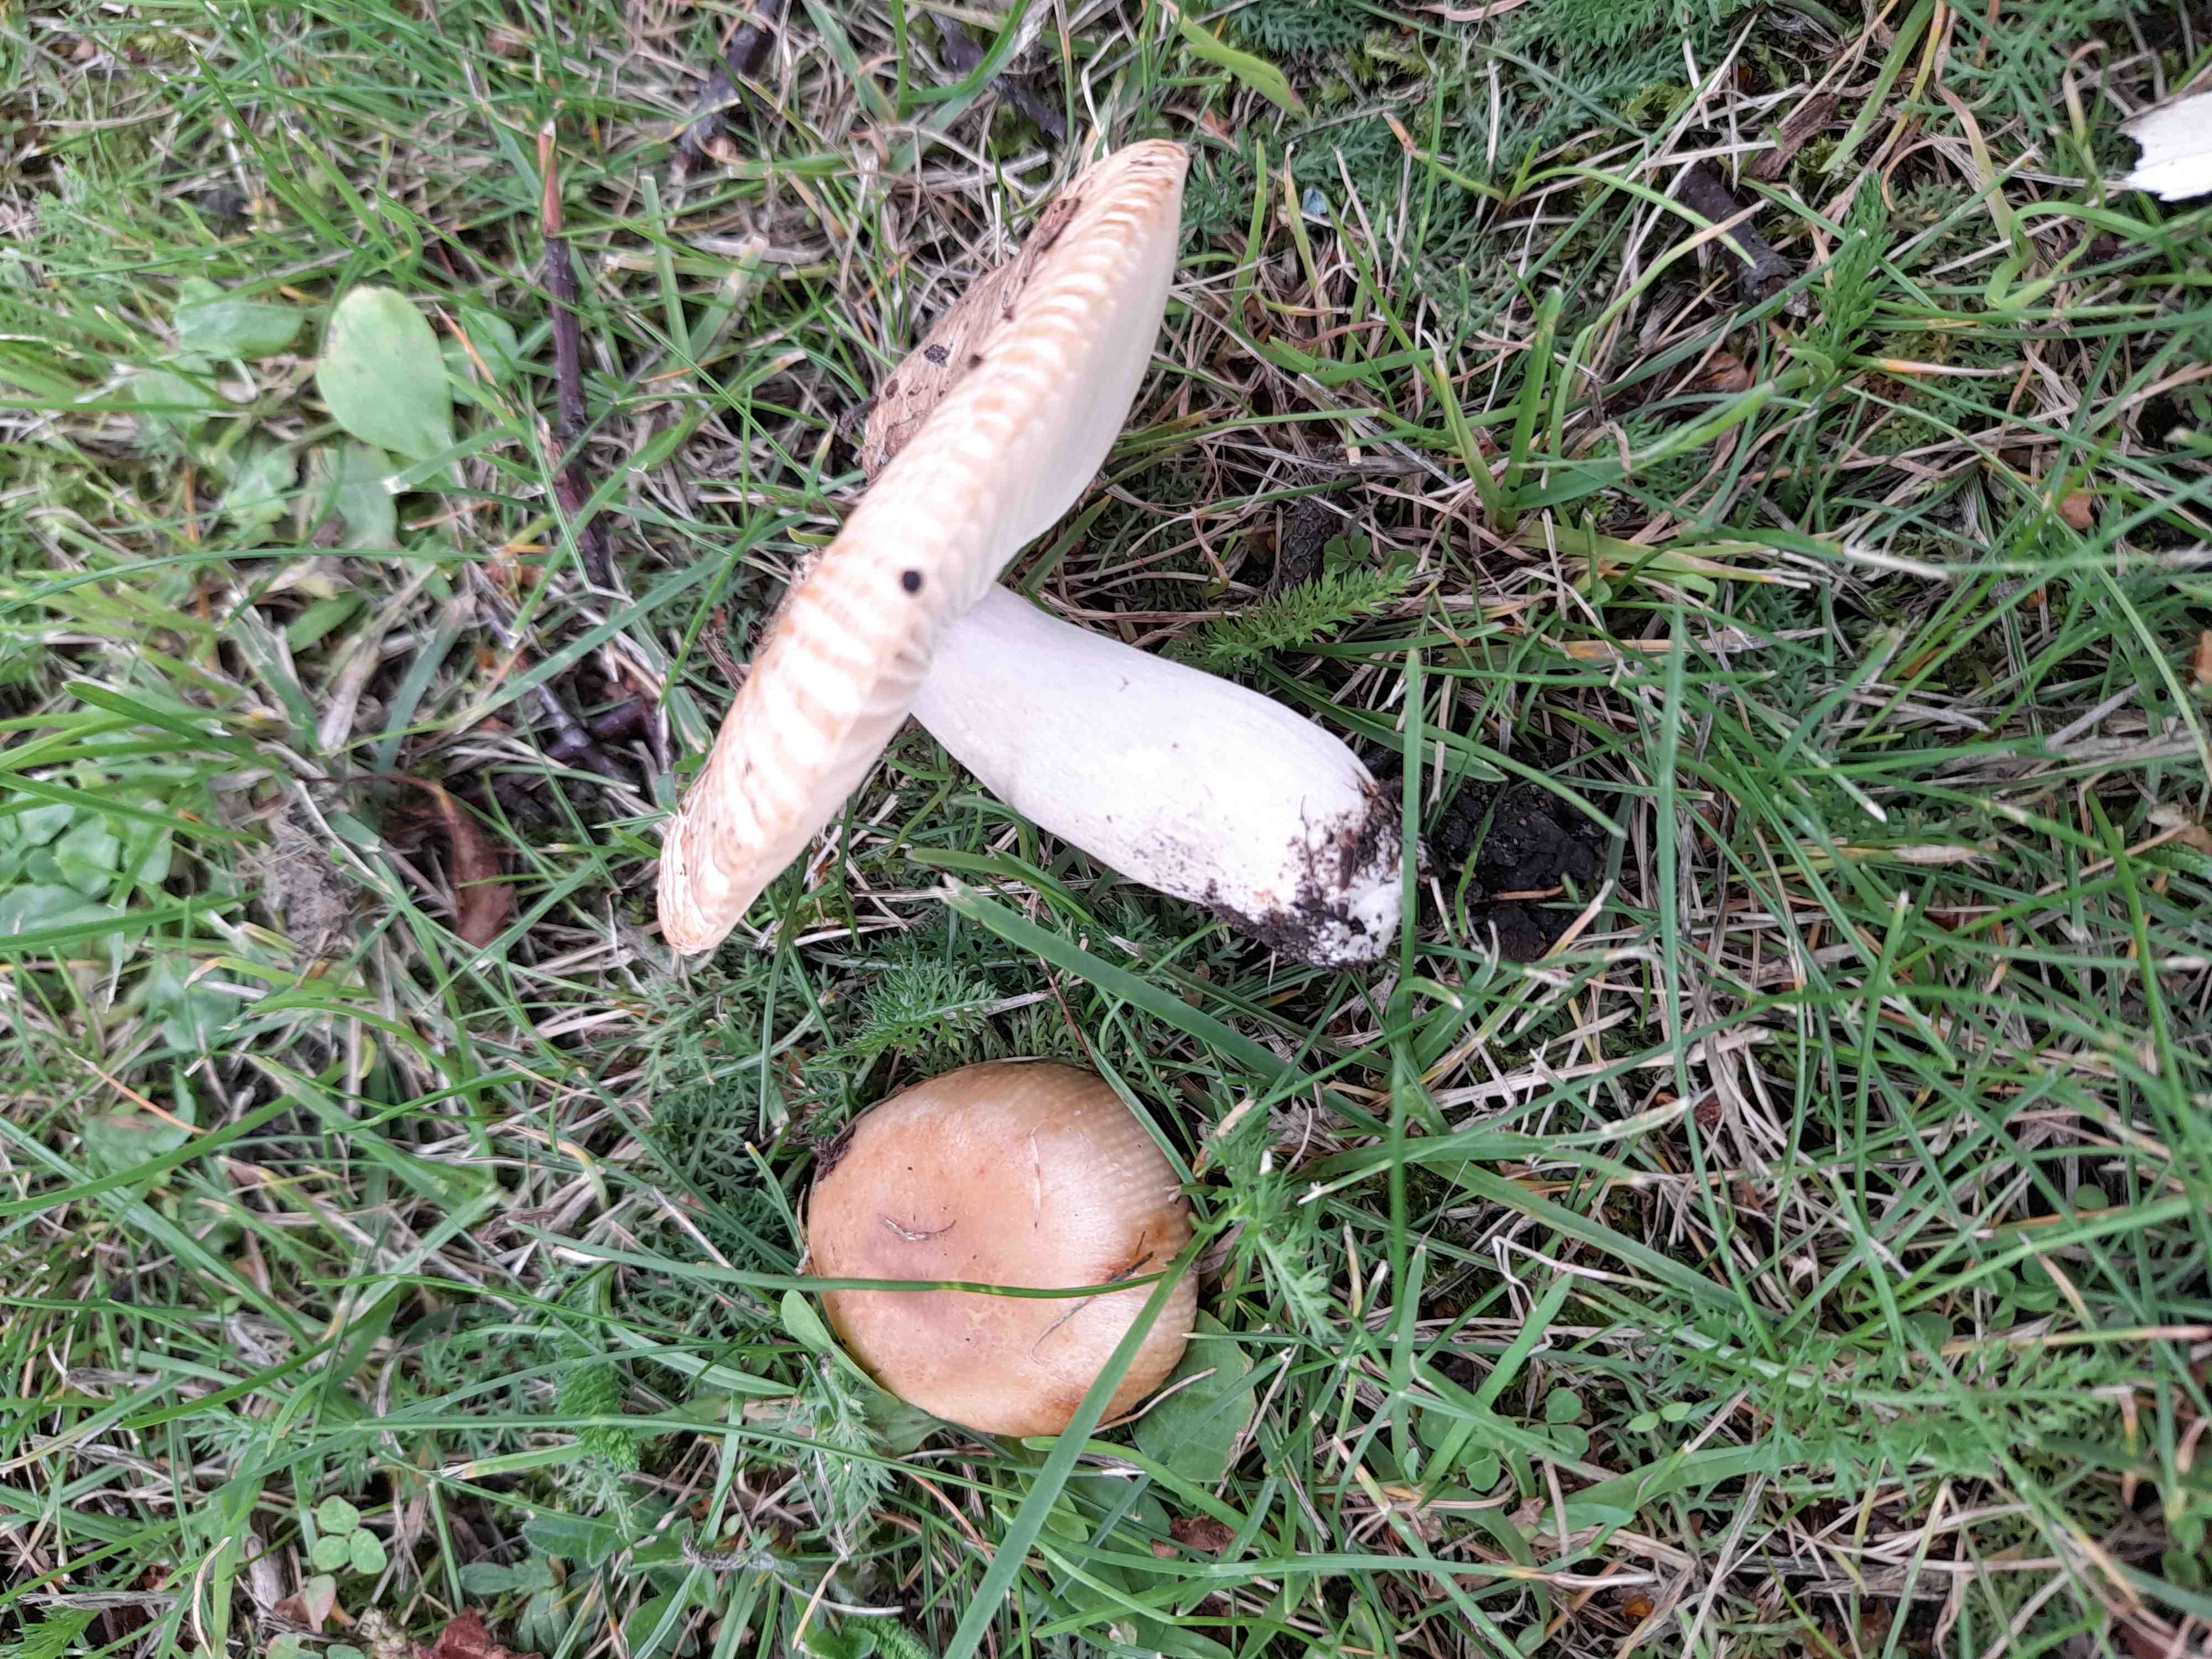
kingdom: Fungi
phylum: Basidiomycota
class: Agaricomycetes
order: Russulales
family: Russulaceae
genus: Russula
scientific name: Russula recondita
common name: mild kam-skørhat
